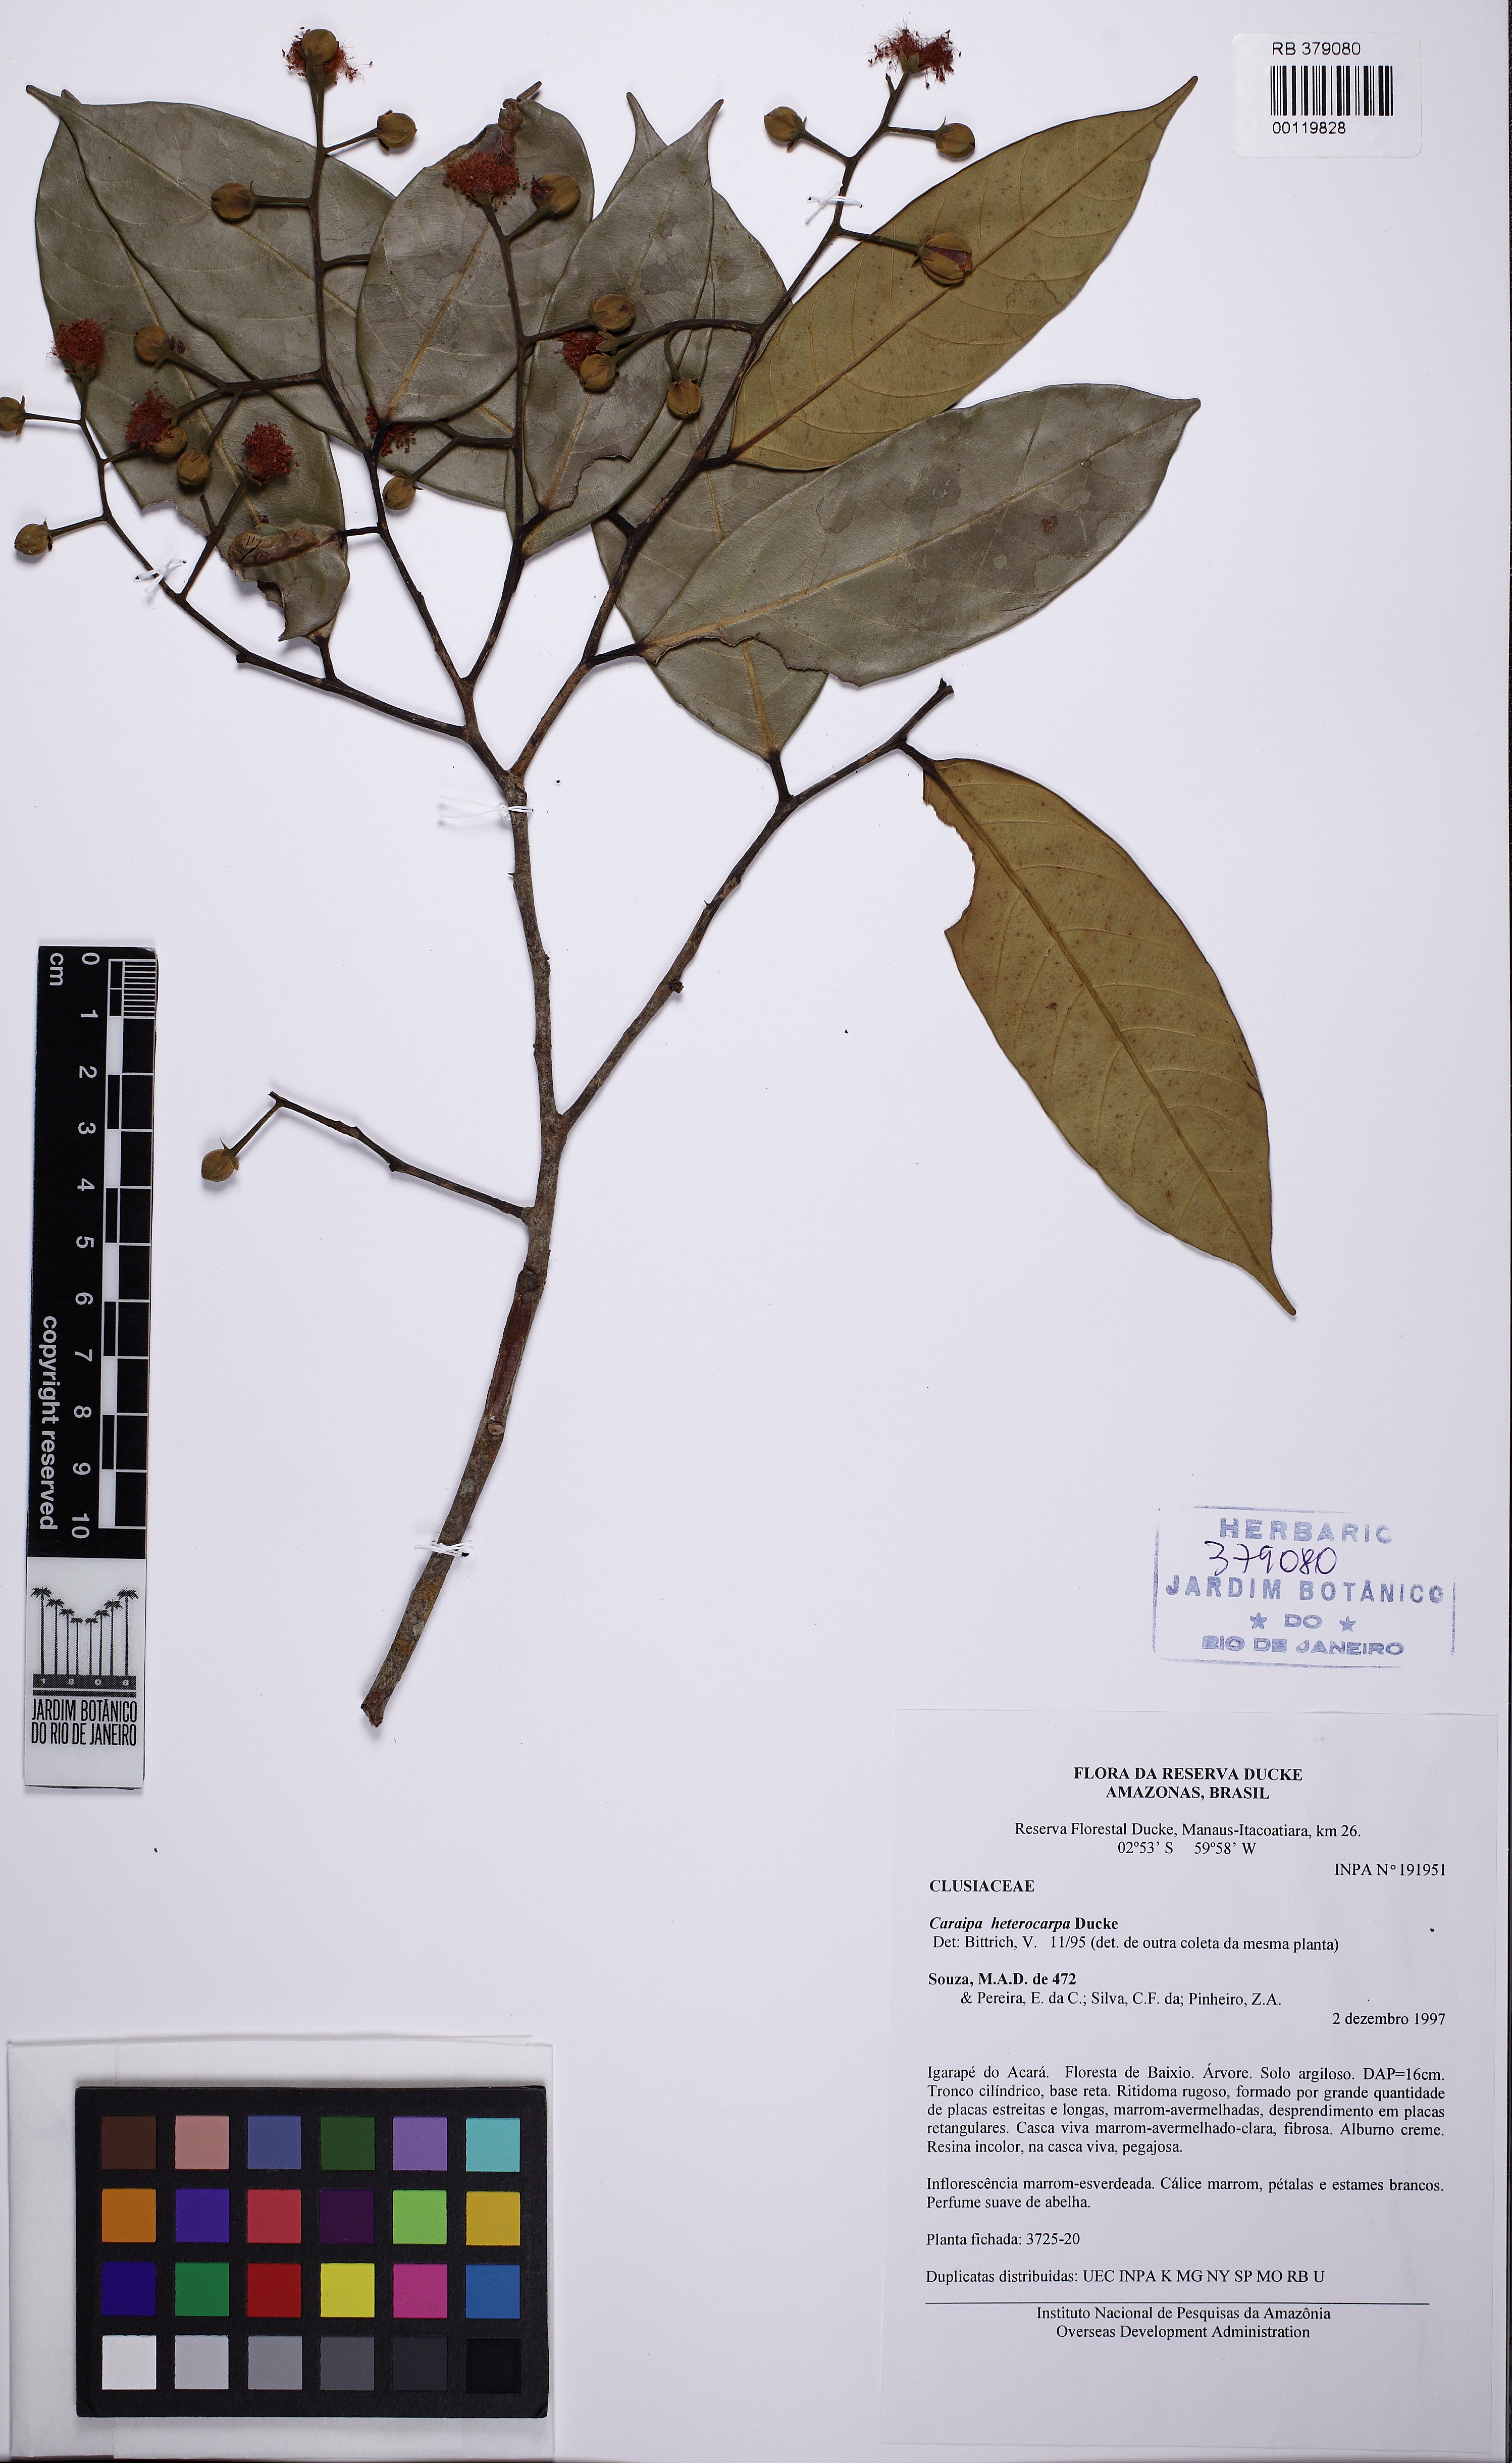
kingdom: Plantae
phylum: Tracheophyta
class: Magnoliopsida
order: Malpighiales
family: Calophyllaceae
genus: Caraipa
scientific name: Caraipa heterocarpa
